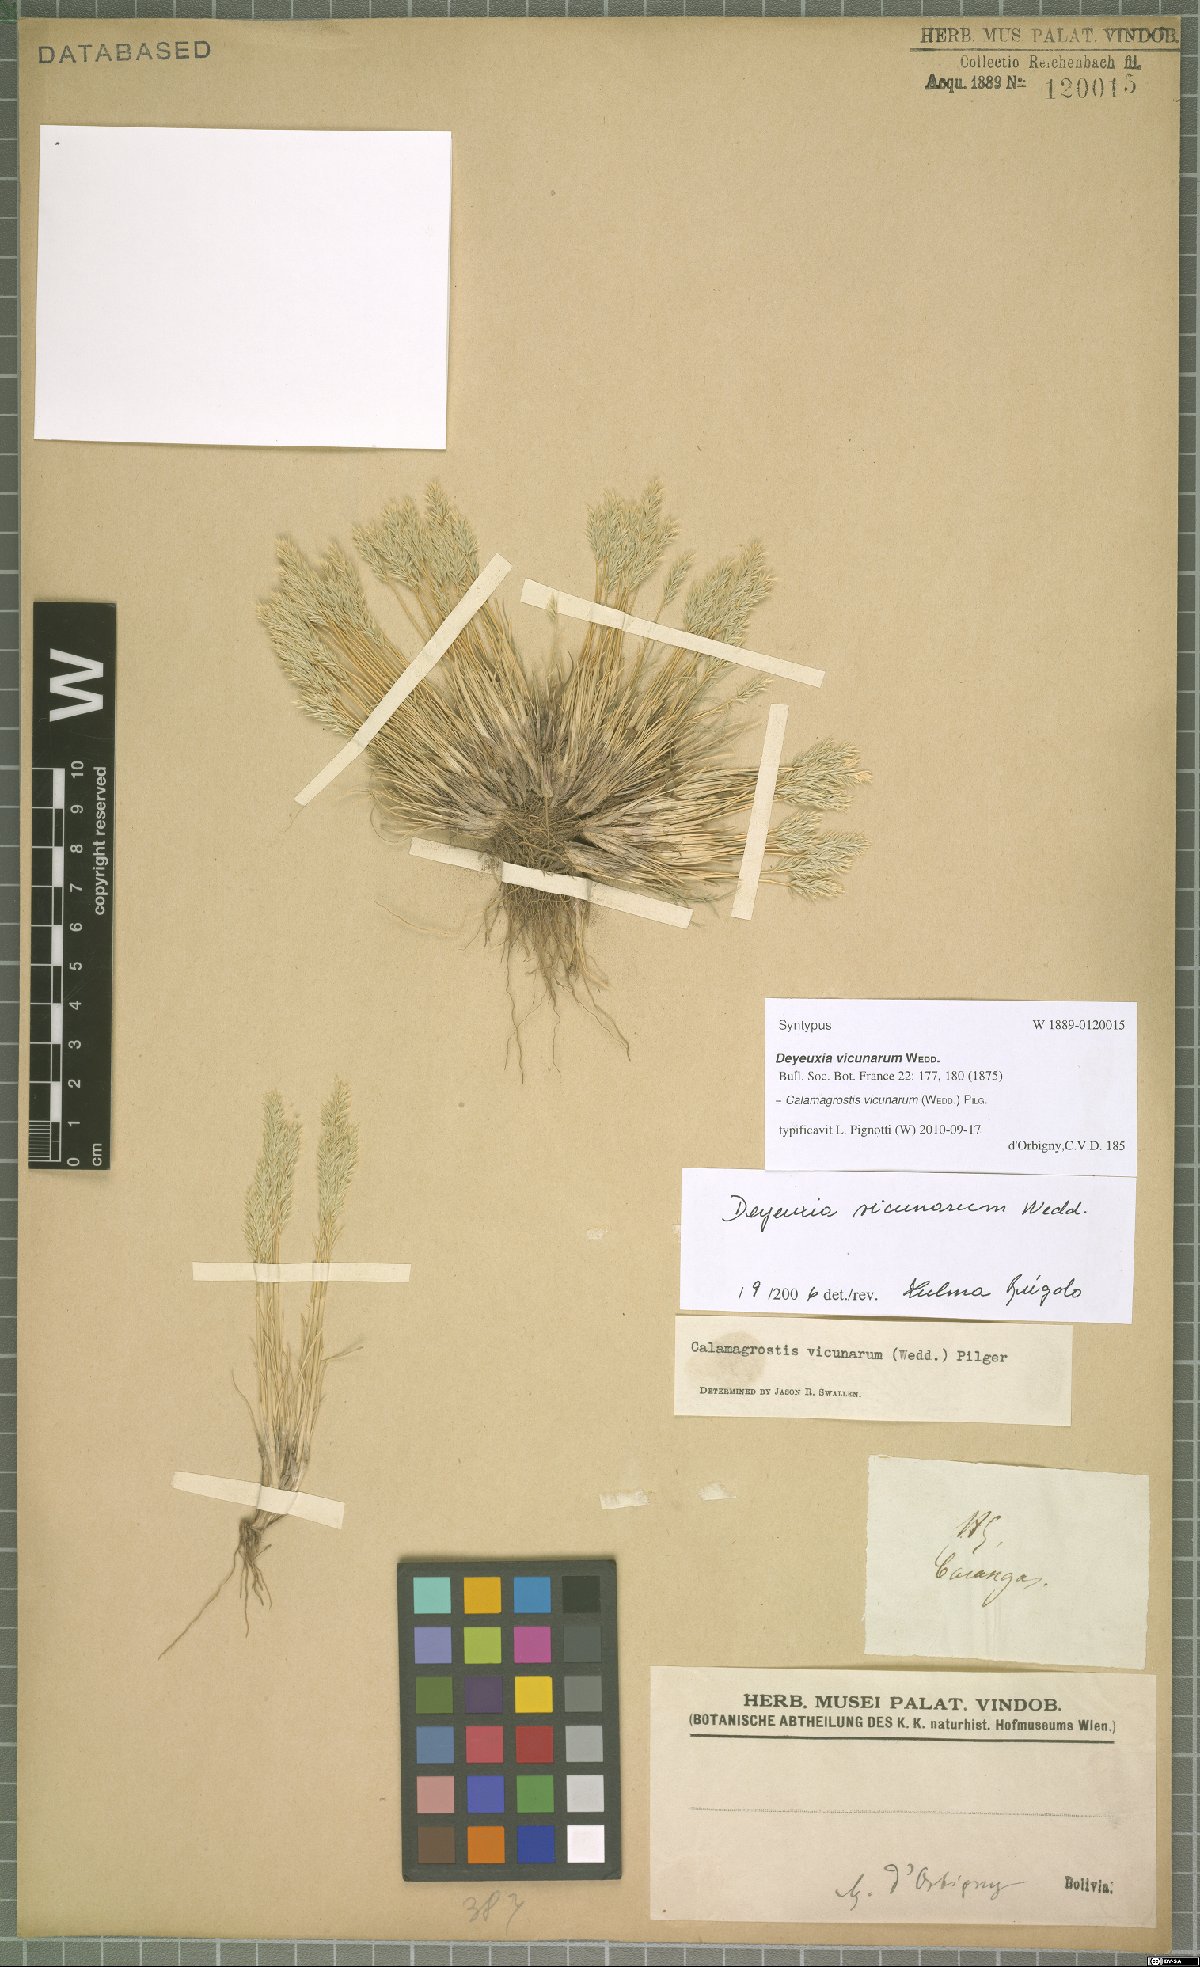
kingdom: Plantae
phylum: Tracheophyta
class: Liliopsida
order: Poales
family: Poaceae
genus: Cinnagrostis
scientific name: Cinnagrostis vicunarum
